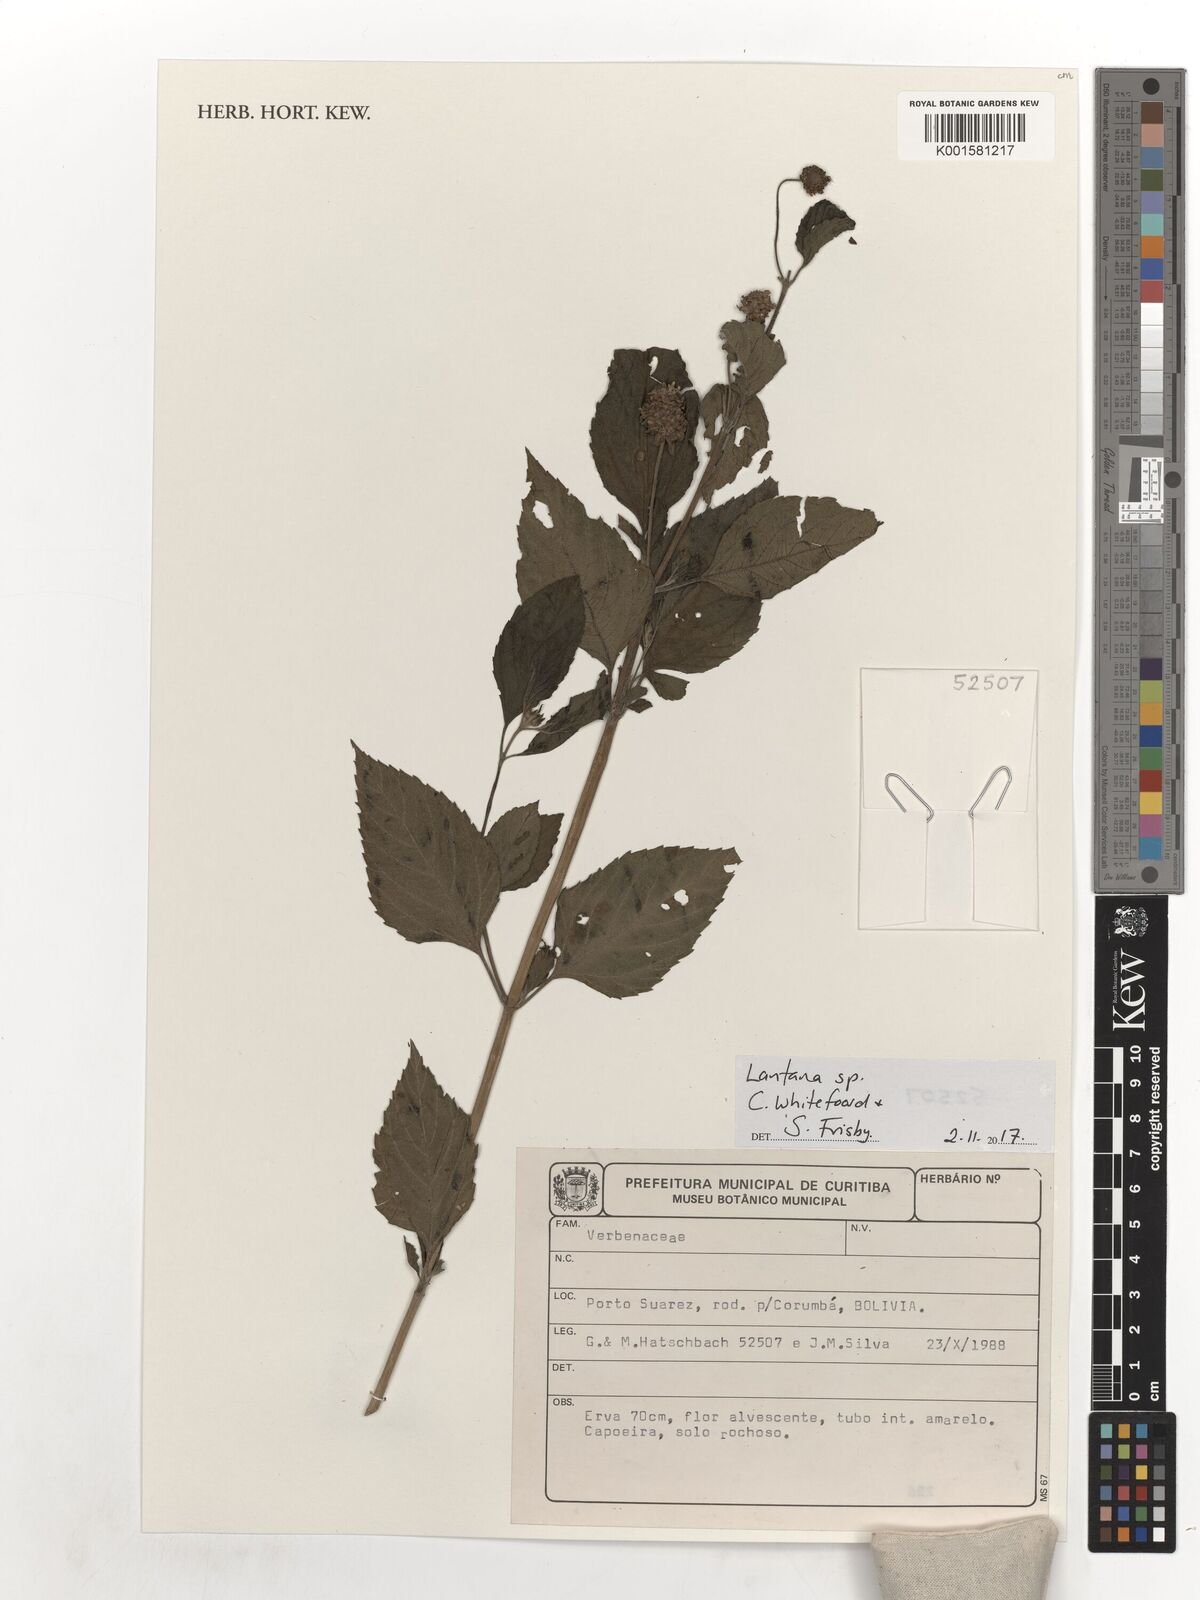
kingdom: Plantae
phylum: Tracheophyta
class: Magnoliopsida
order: Lamiales
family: Verbenaceae
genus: Lantana
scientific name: Lantana
